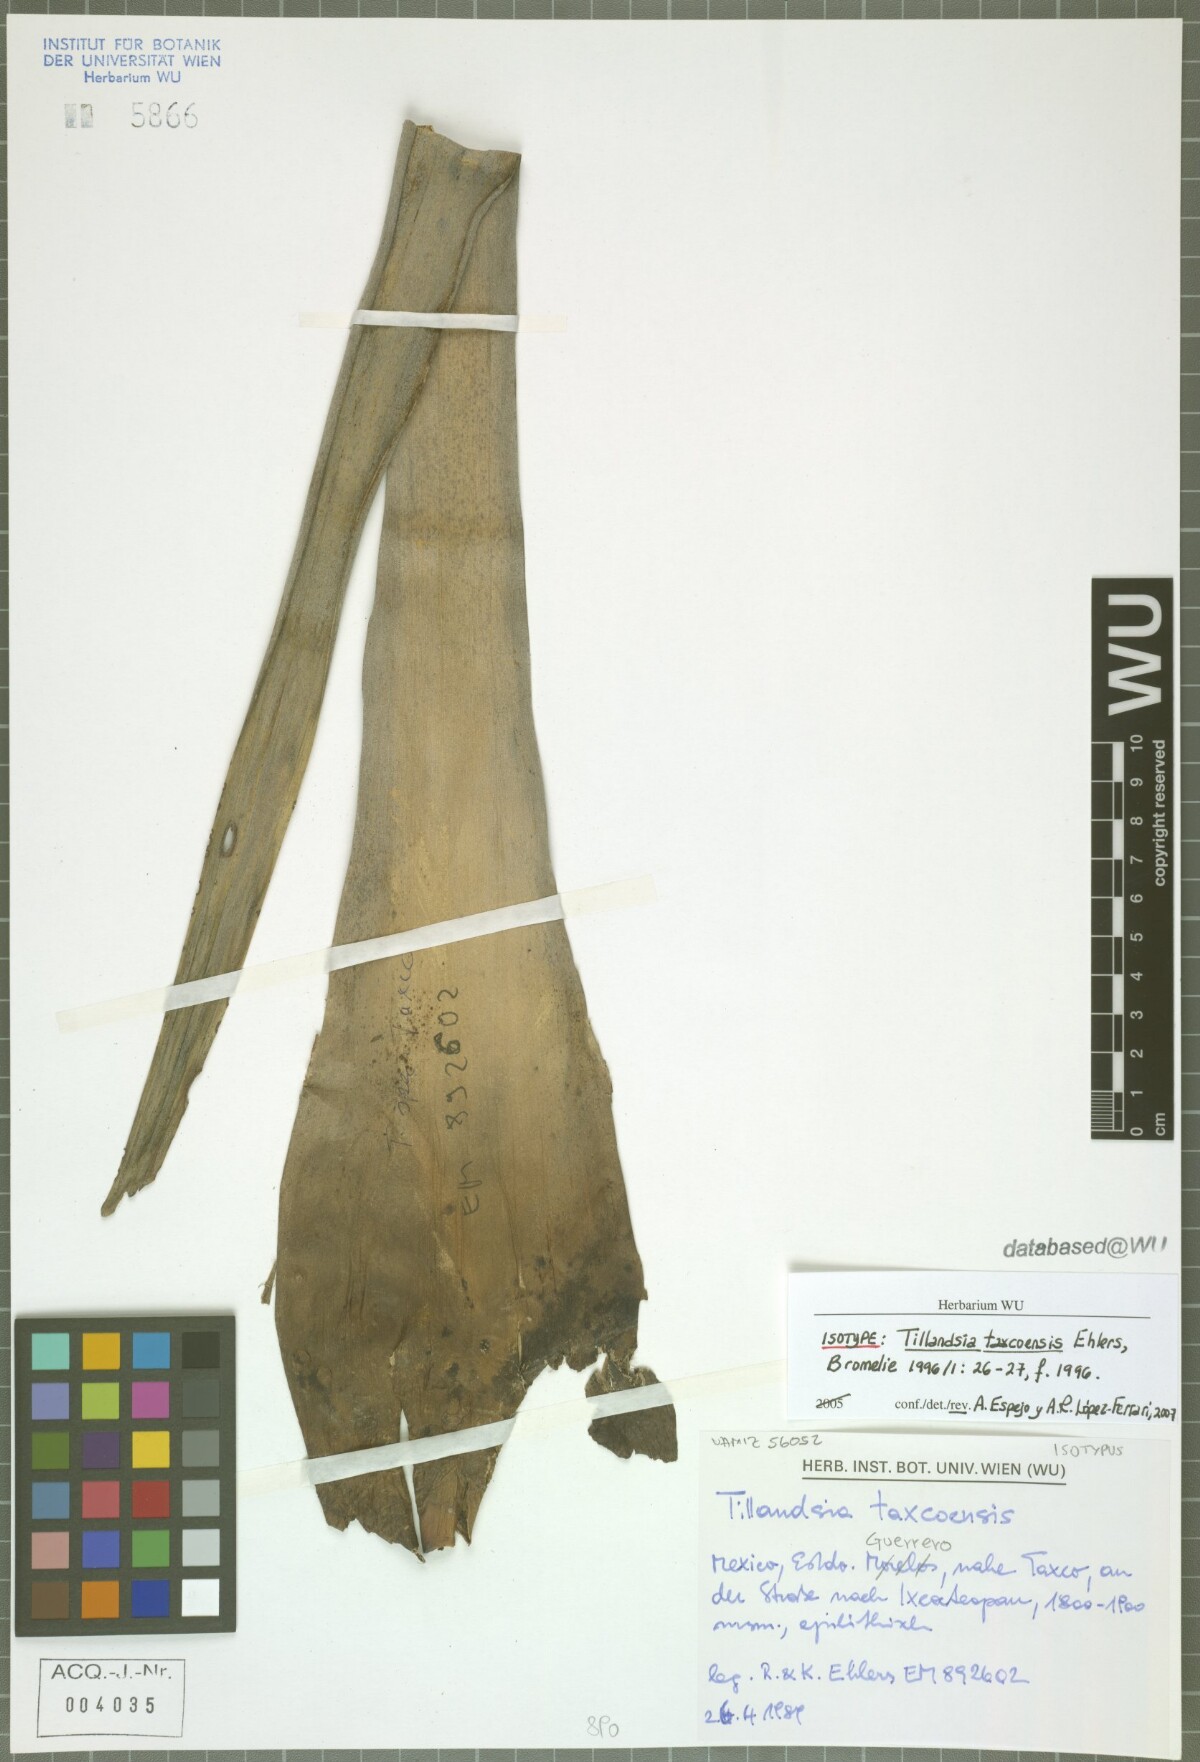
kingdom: Plantae
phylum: Tracheophyta
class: Liliopsida
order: Poales
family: Bromeliaceae
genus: Tillandsia
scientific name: Tillandsia taxcoensis
